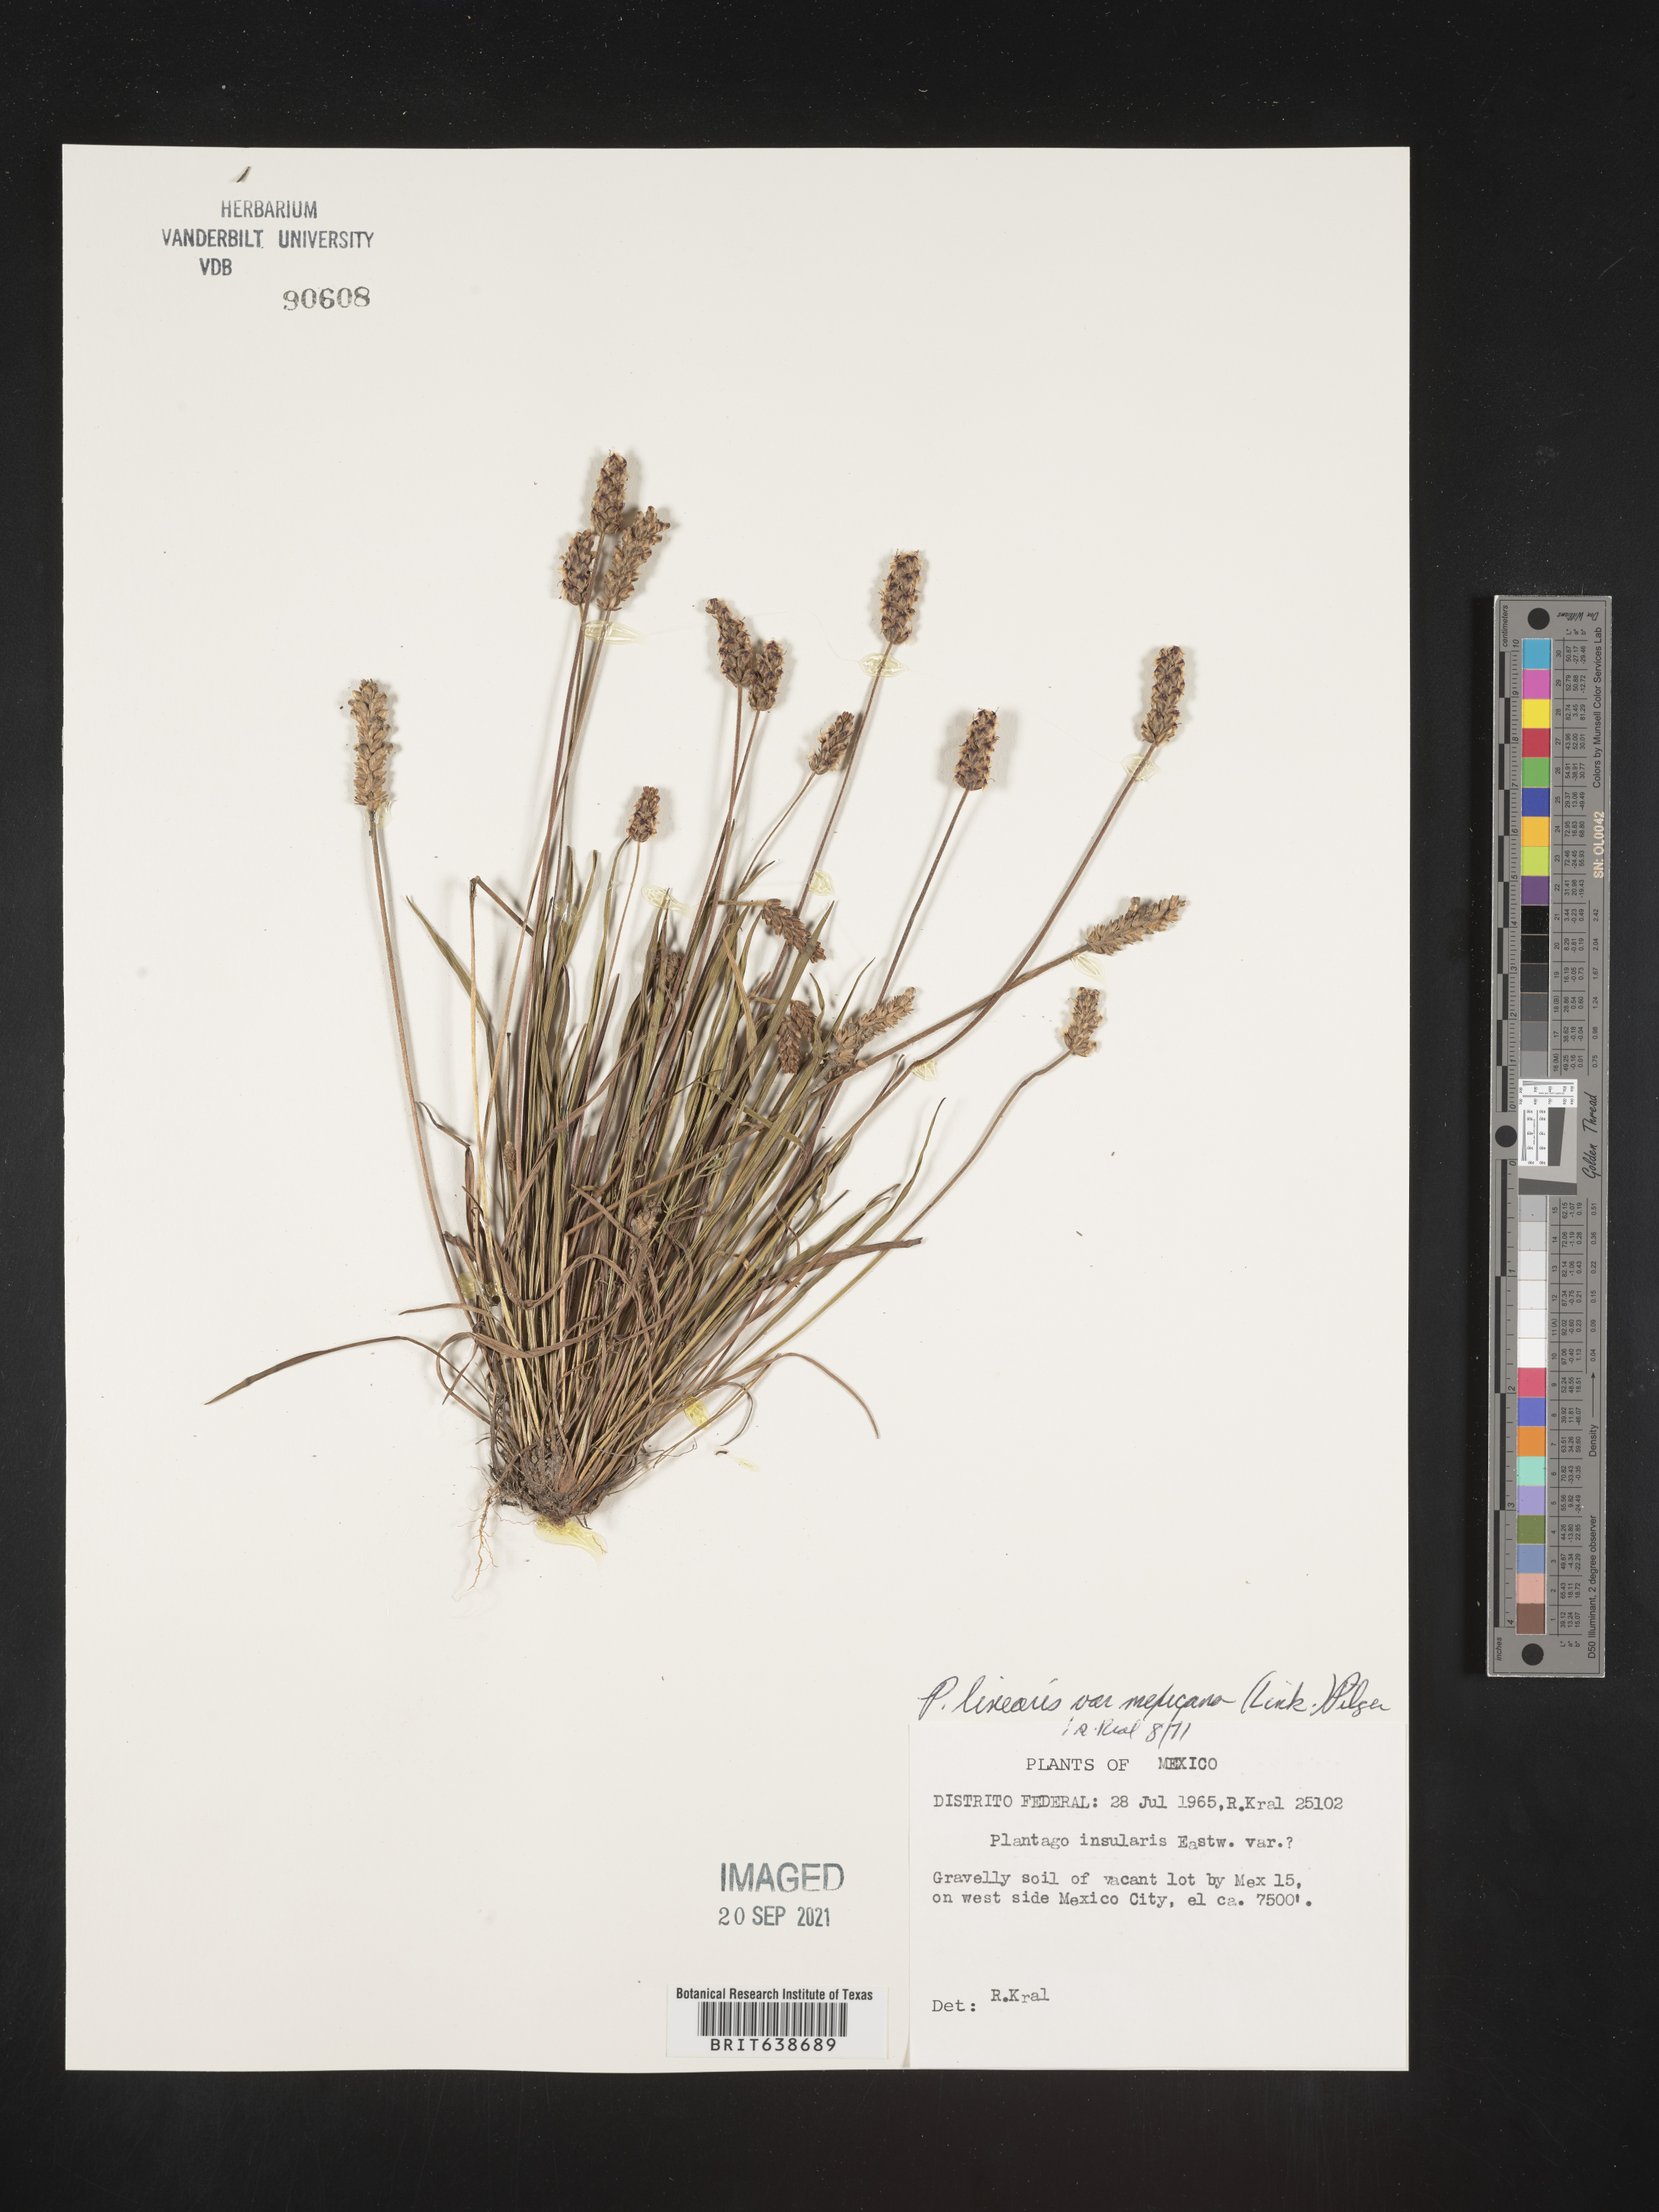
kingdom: Plantae
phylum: Tracheophyta
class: Magnoliopsida
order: Lamiales
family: Plantaginaceae
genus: Plantago
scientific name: Plantago
